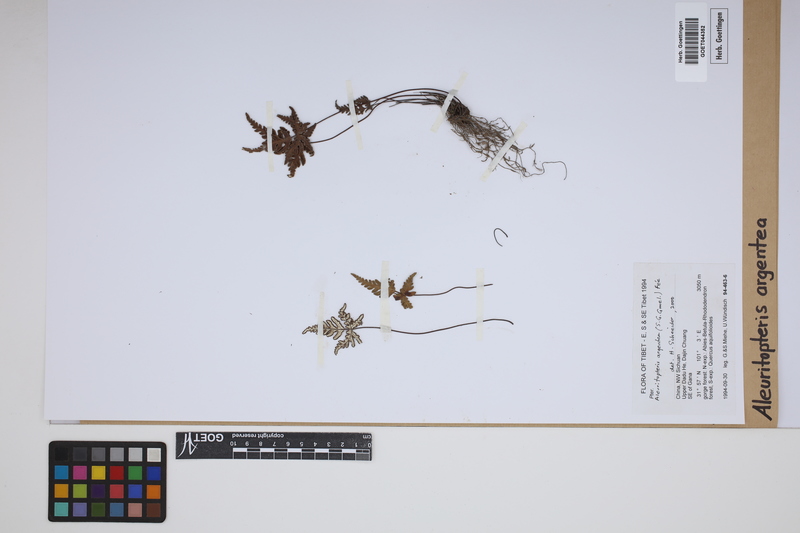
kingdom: Plantae
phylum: Tracheophyta
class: Polypodiopsida
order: Polypodiales
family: Pteridaceae
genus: Aleuritopteris
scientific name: Aleuritopteris argentea
